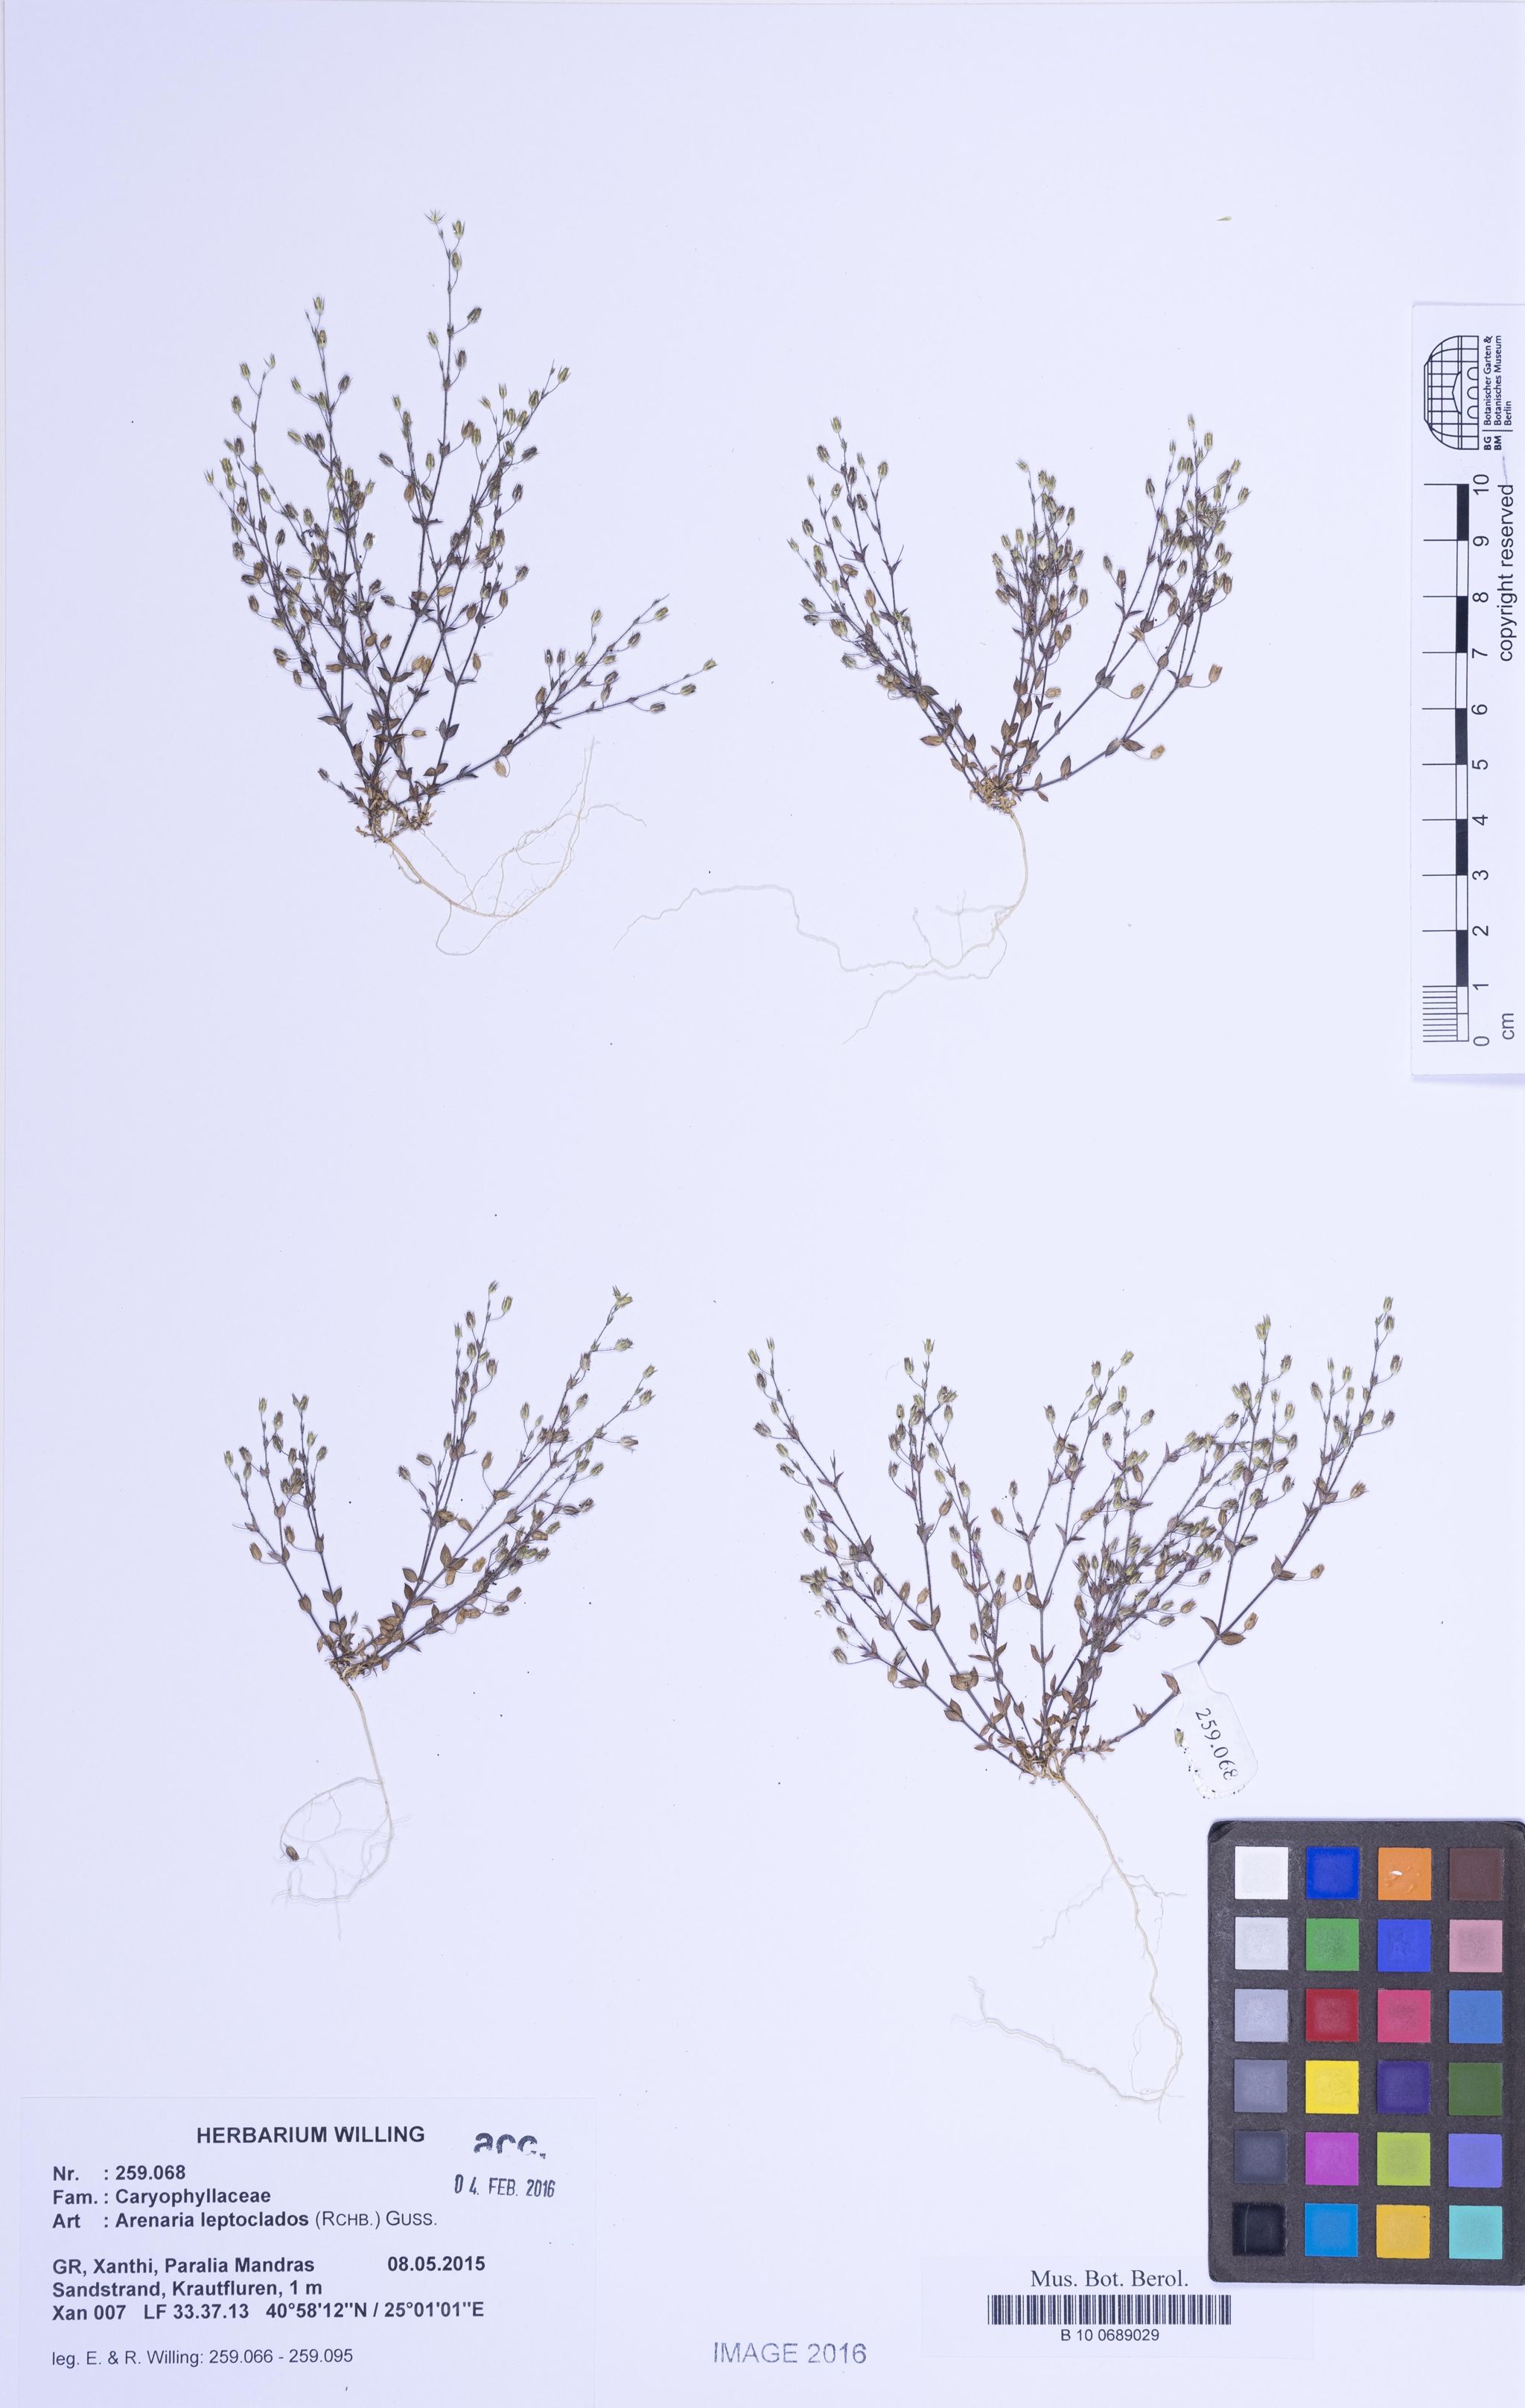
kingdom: Plantae
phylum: Tracheophyta
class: Magnoliopsida
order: Caryophyllales
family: Caryophyllaceae
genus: Arenaria
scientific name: Arenaria leptoclados
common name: Thyme-leaved sandwort
